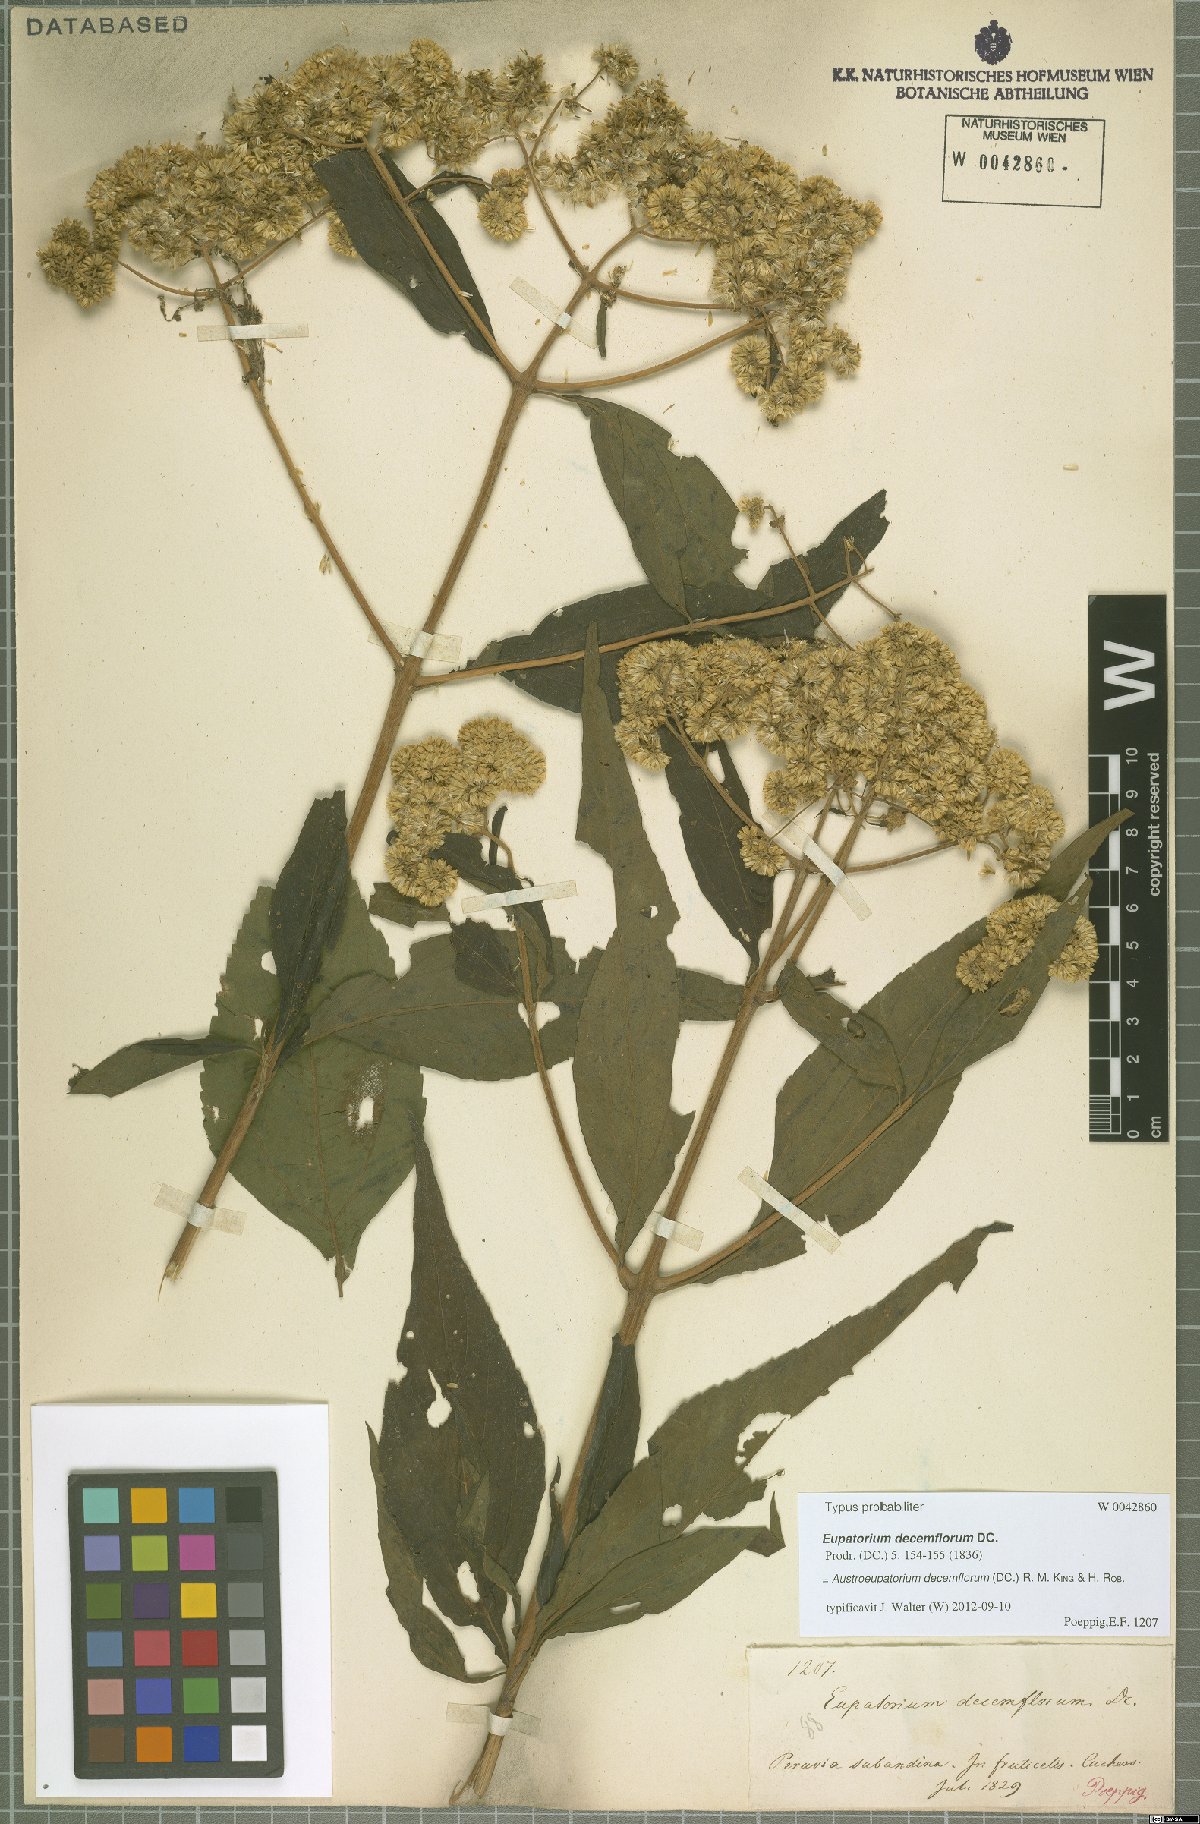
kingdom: Plantae
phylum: Tracheophyta
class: Magnoliopsida
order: Asterales
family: Asteraceae
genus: Austroeupatorium
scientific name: Austroeupatorium decemflorum
